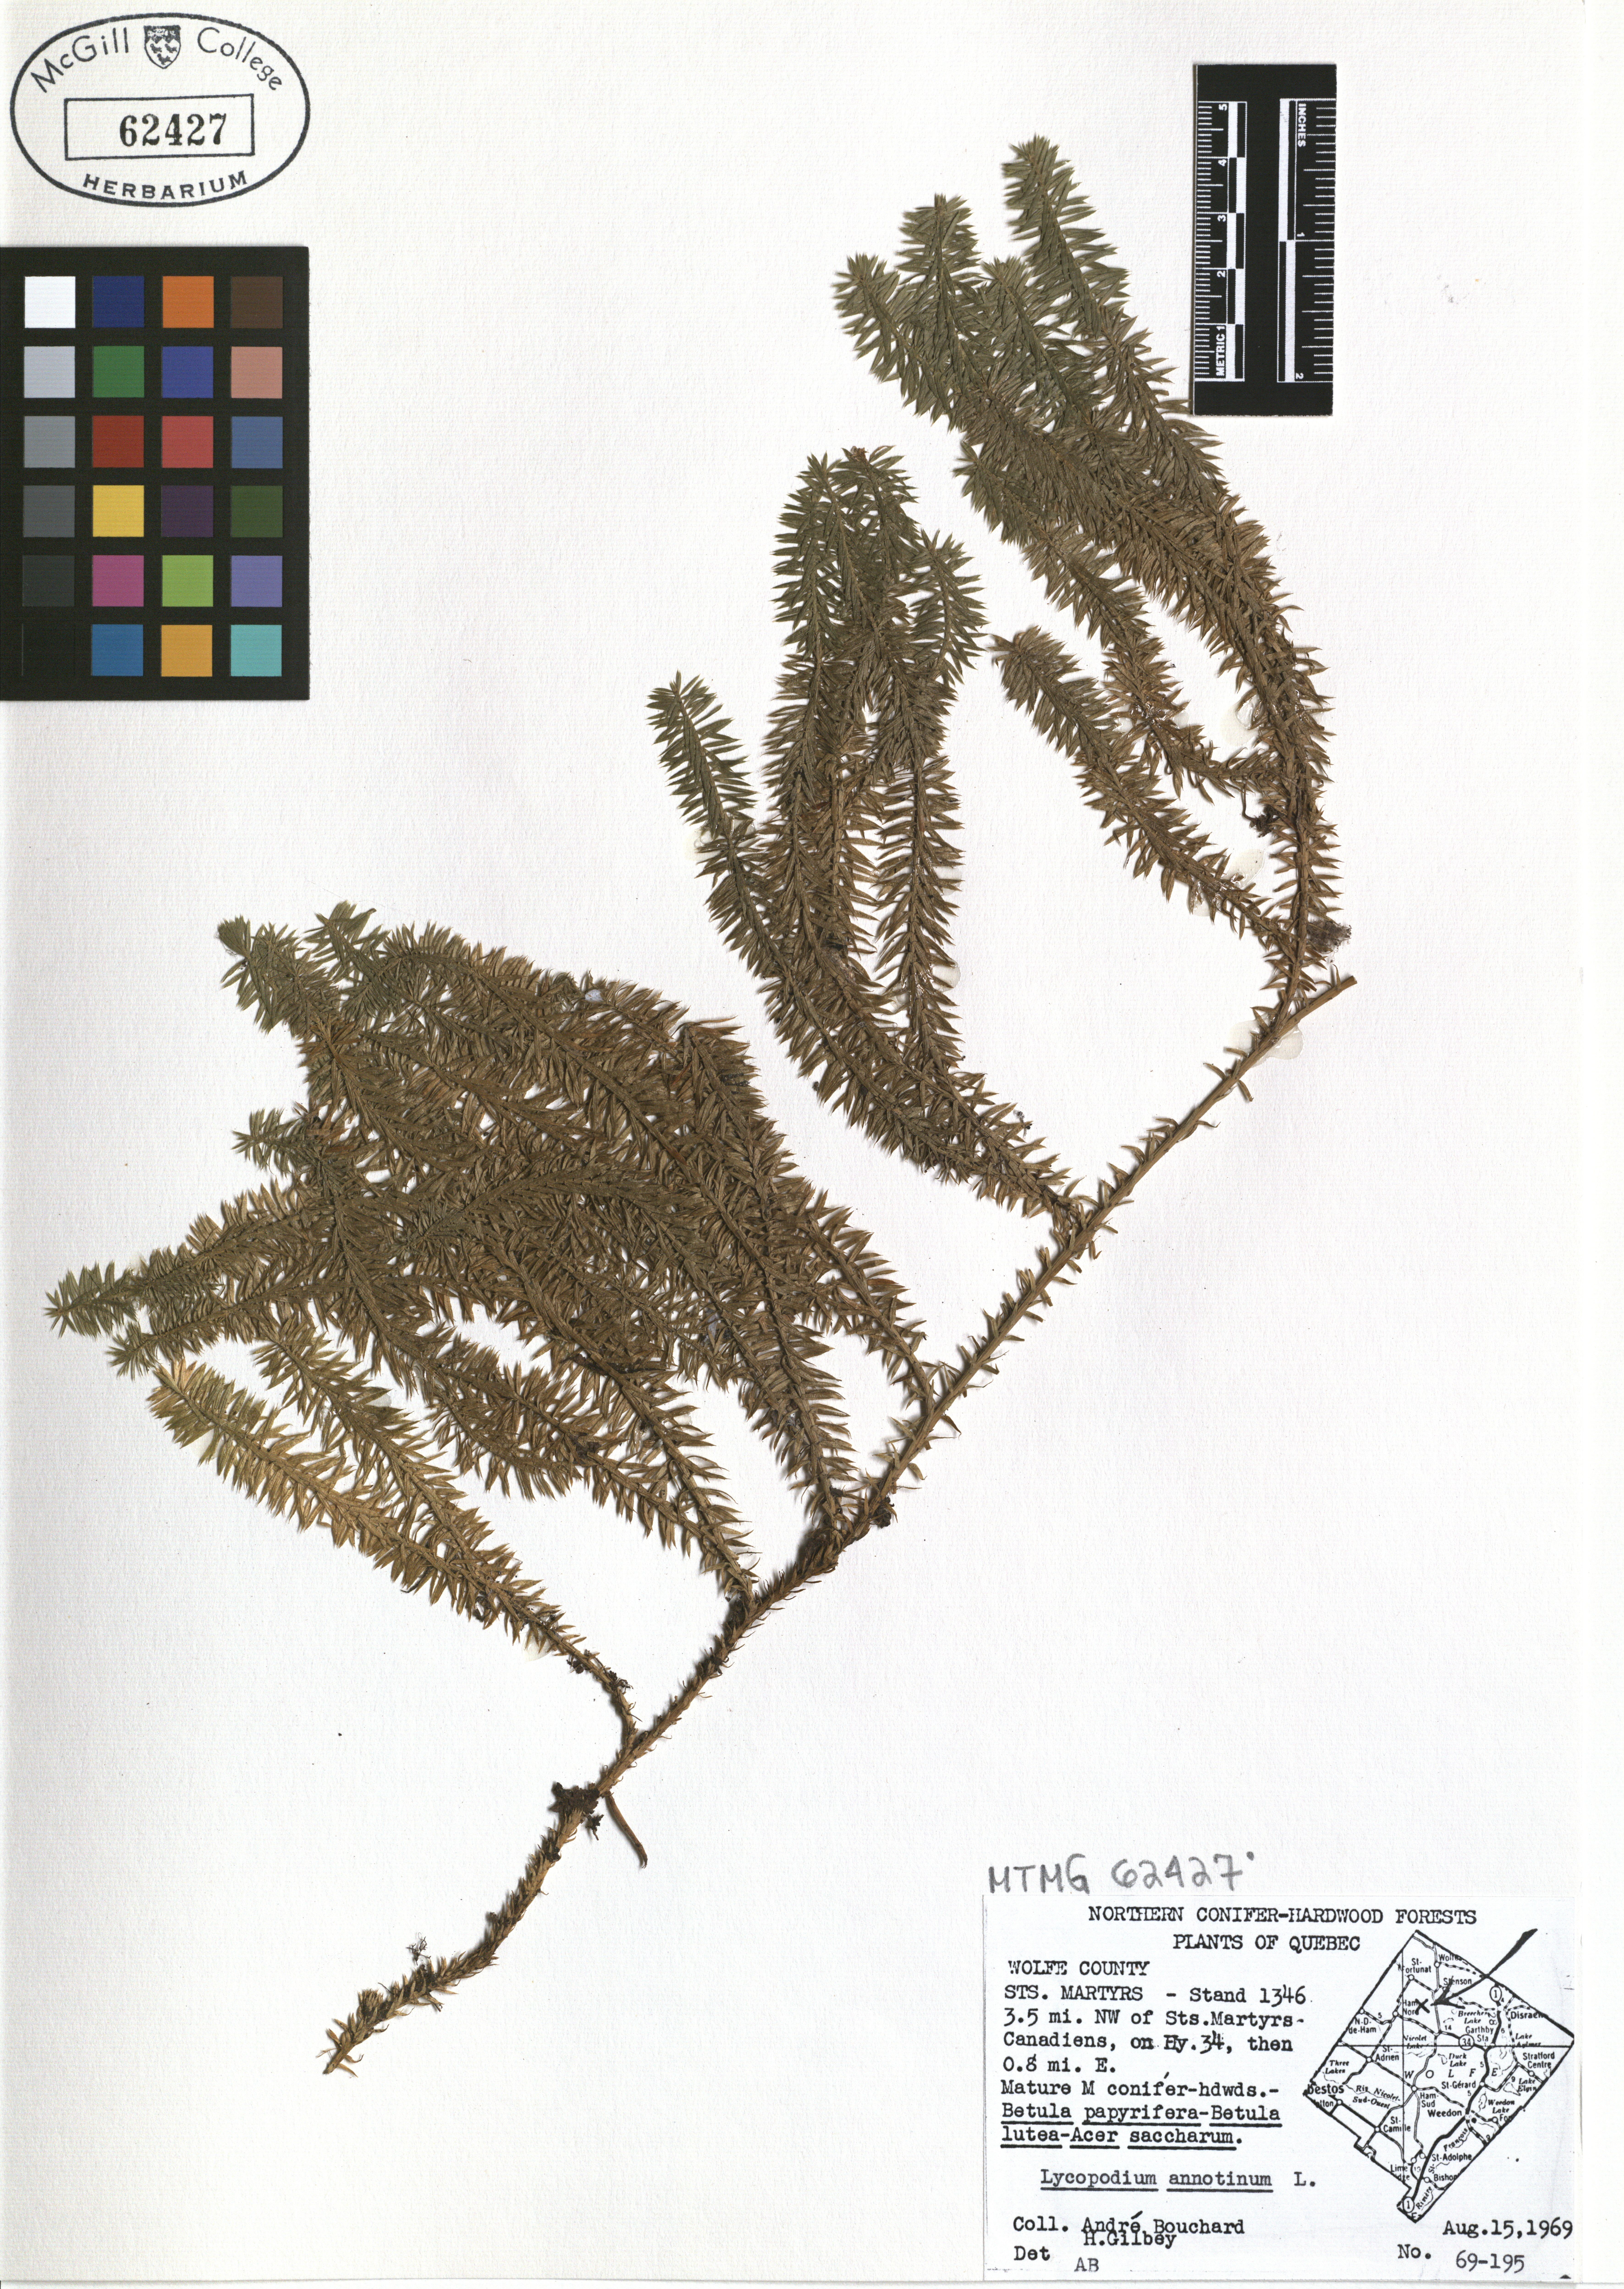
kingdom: Plantae
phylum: Tracheophyta
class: Lycopodiopsida
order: Lycopodiales
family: Lycopodiaceae
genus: Spinulum
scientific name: Spinulum annotinum
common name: Interrupted club-moss
